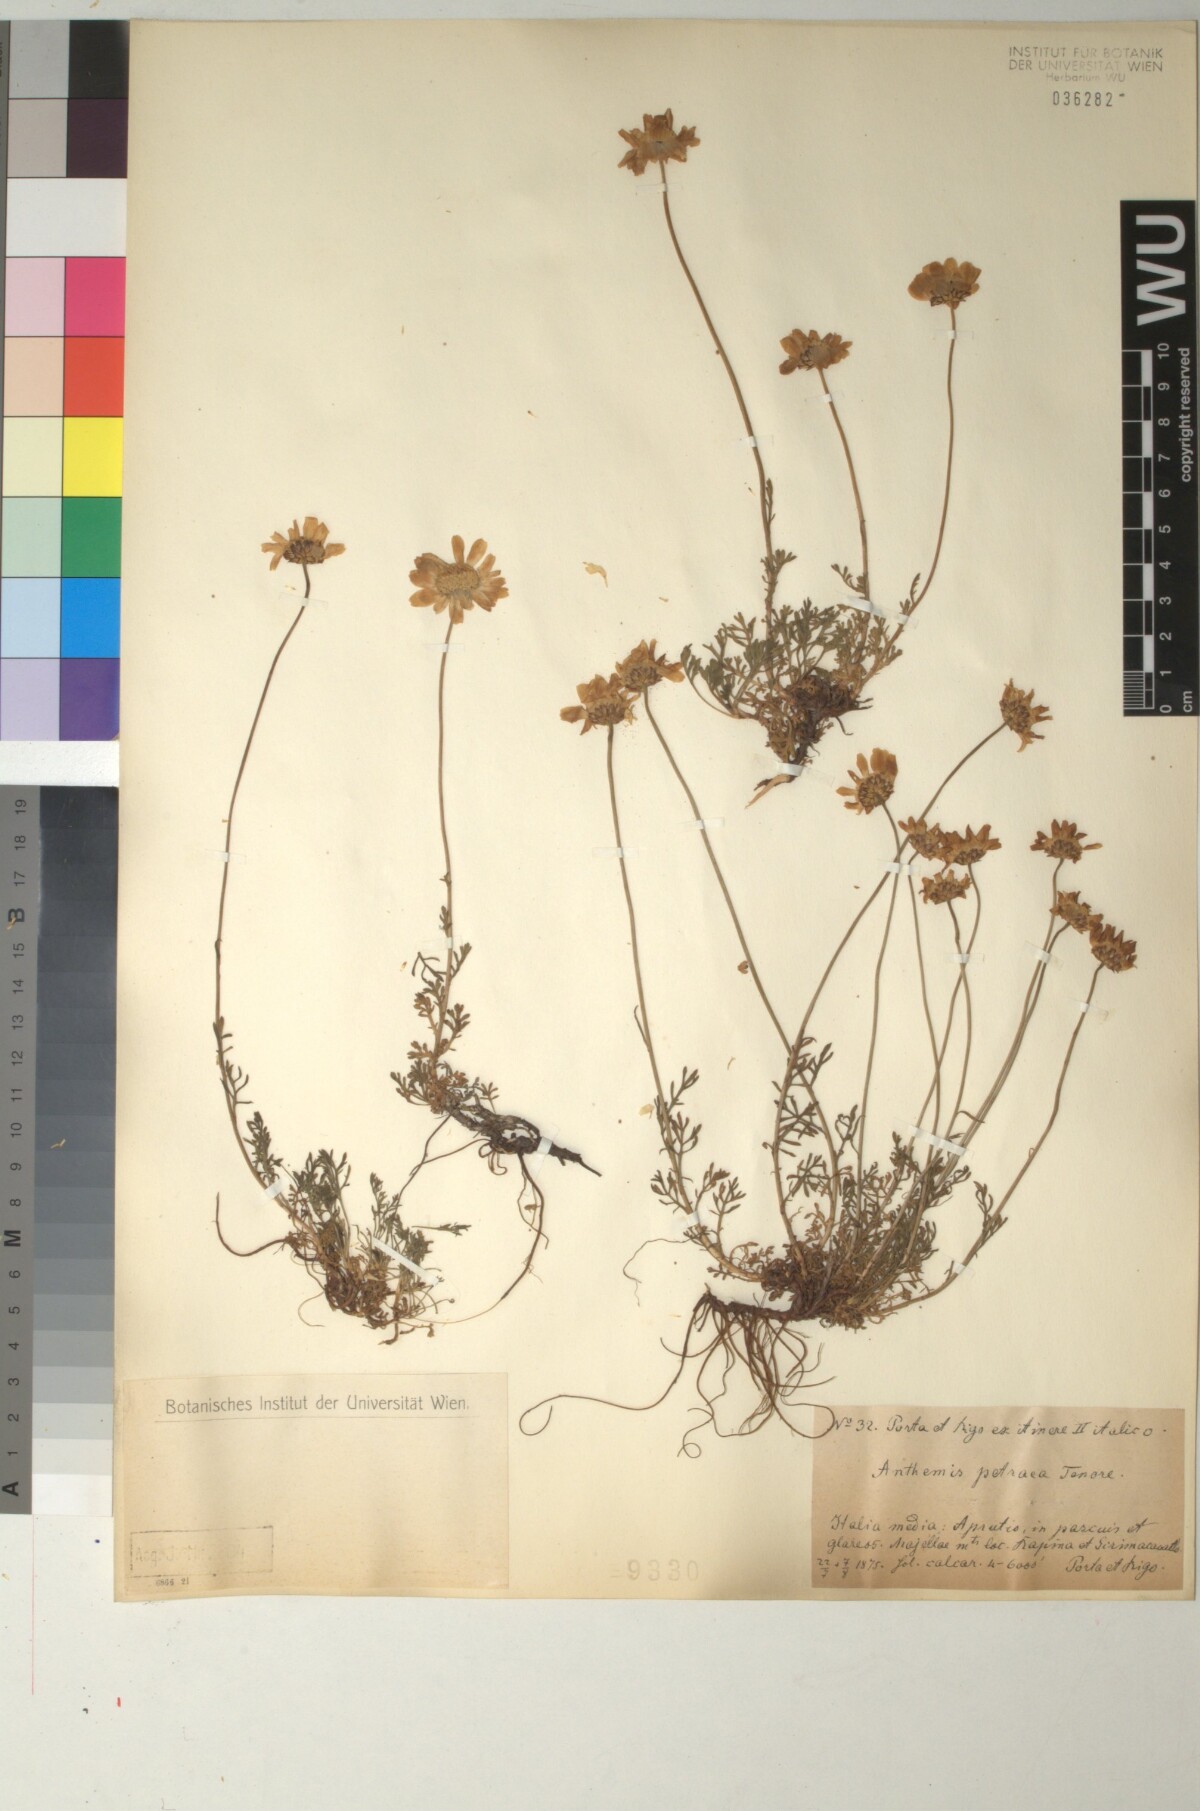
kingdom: Plantae
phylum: Tracheophyta
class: Magnoliopsida
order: Asterales
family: Asteraceae
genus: Anthemis
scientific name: Anthemis cretica
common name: Mountain dog-daisy
